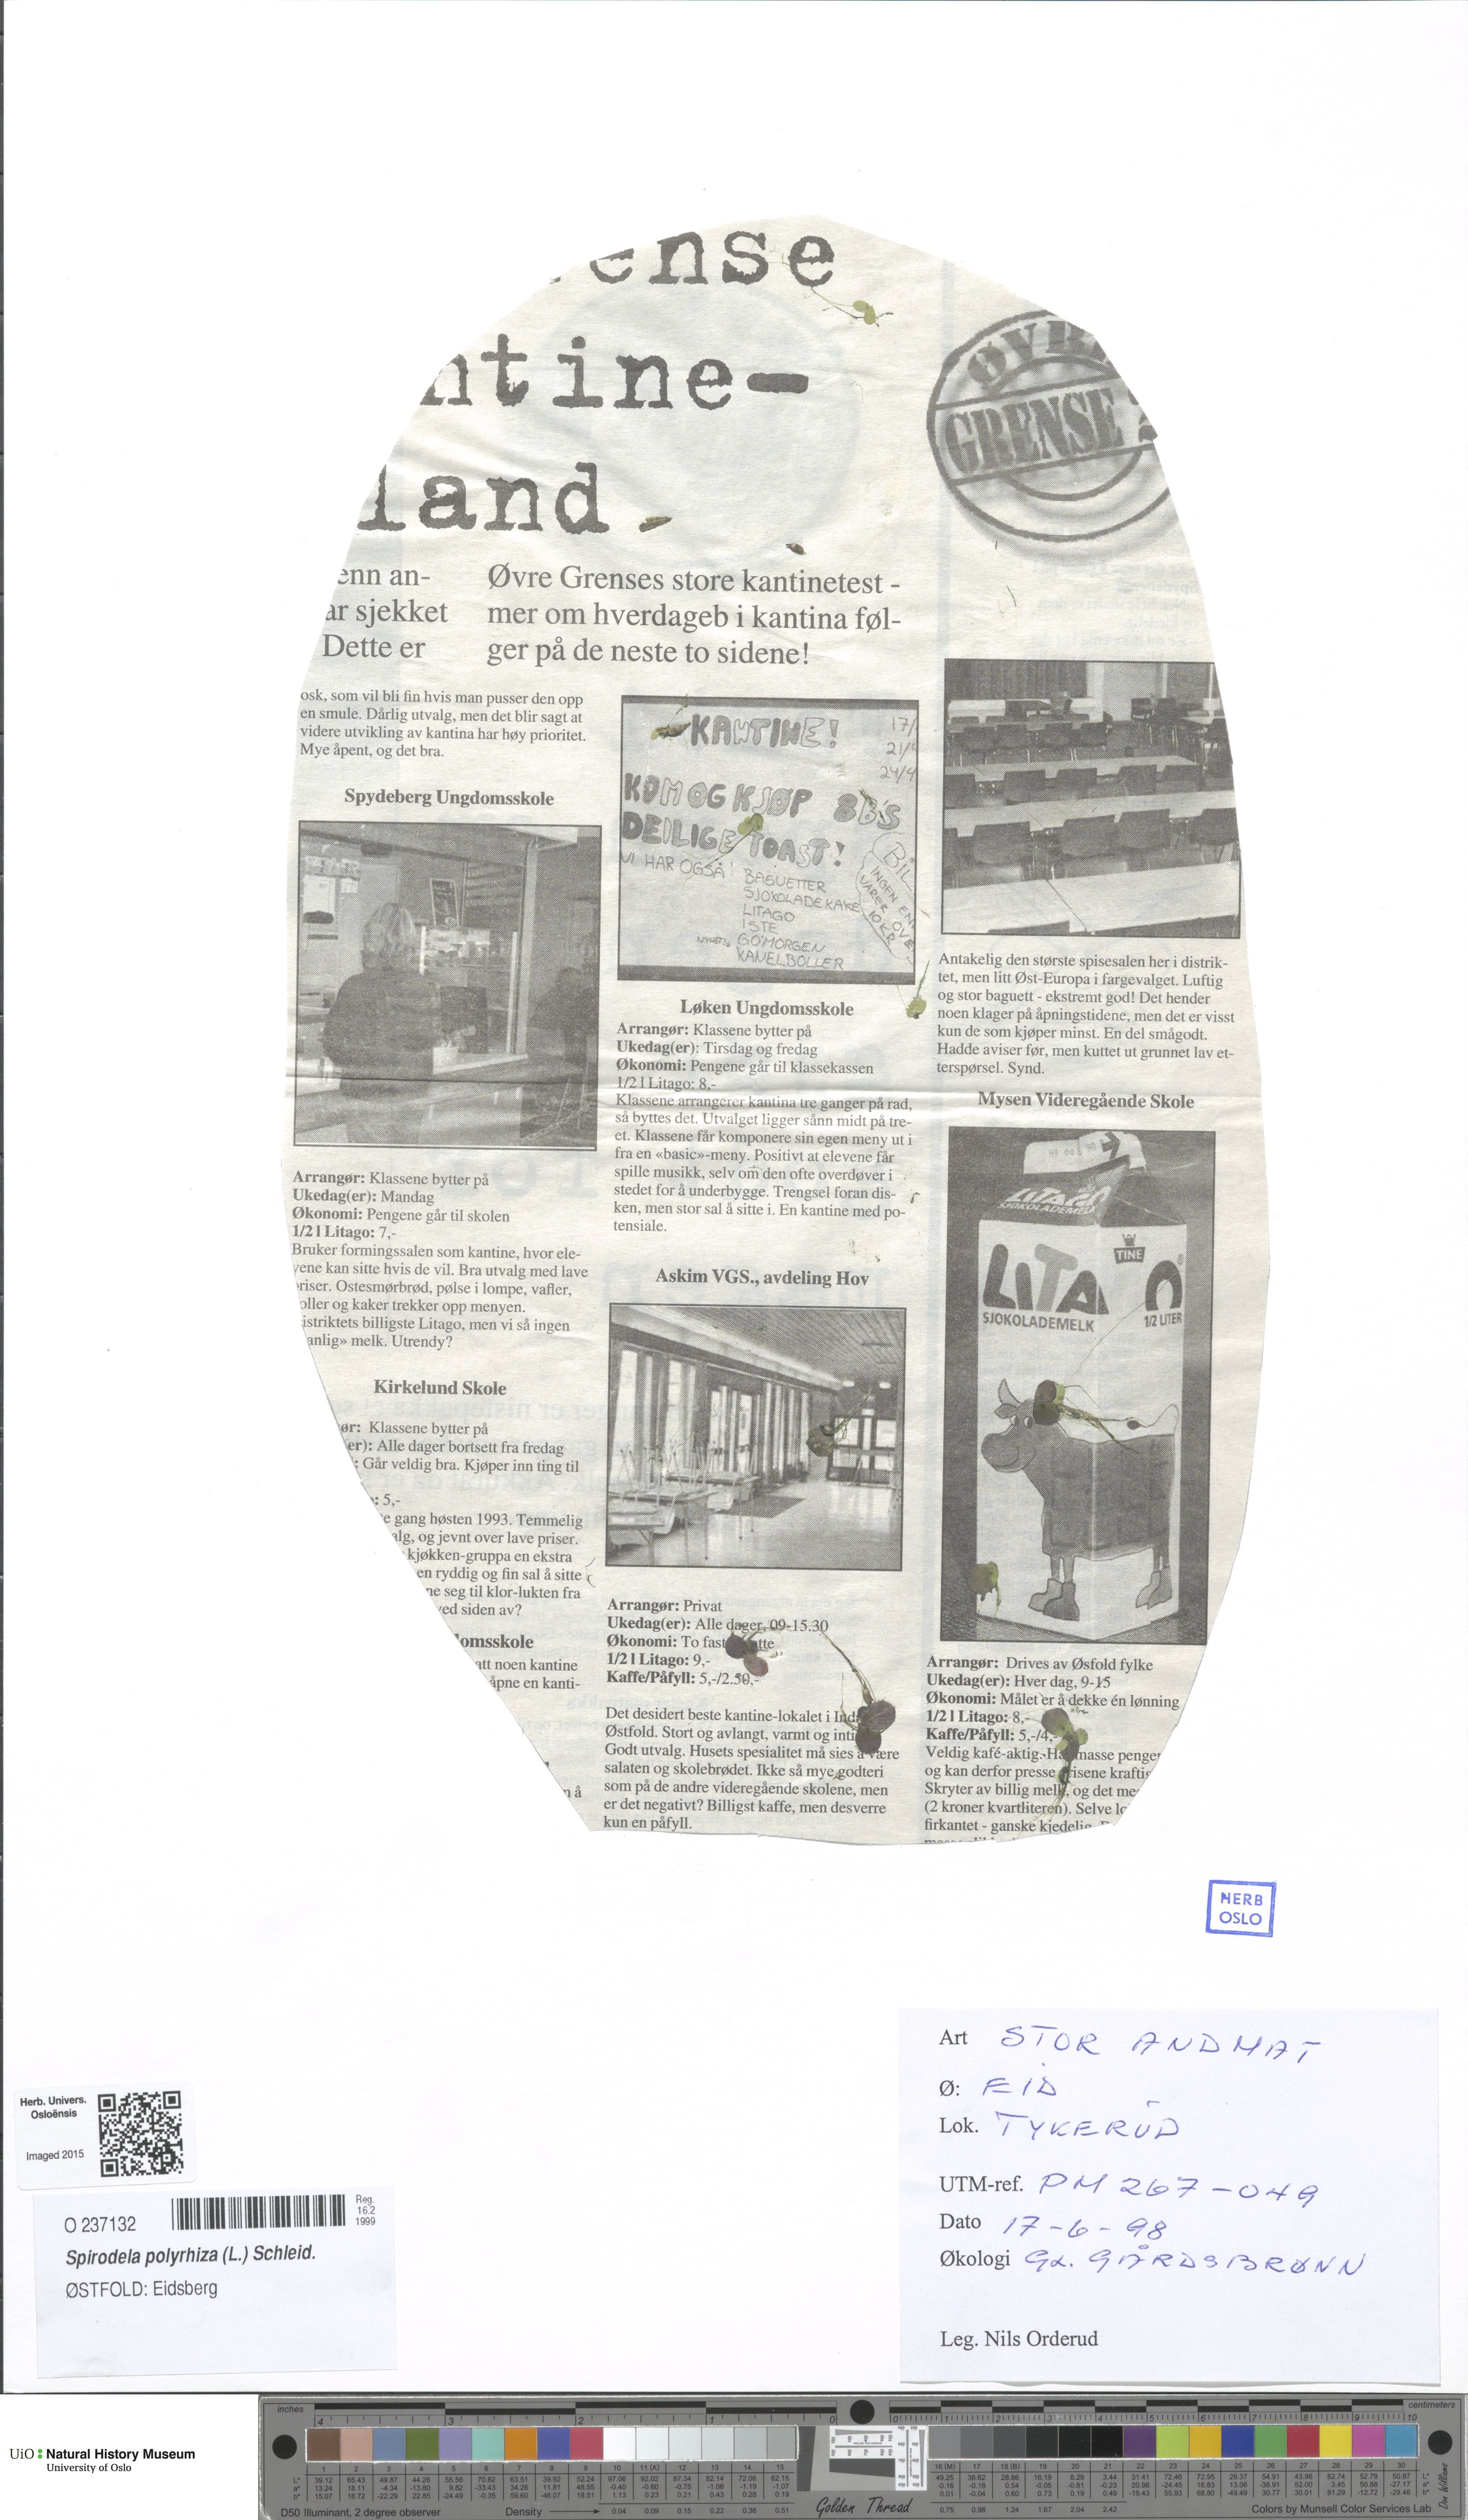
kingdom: Plantae
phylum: Tracheophyta
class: Liliopsida
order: Alismatales
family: Araceae
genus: Spirodela
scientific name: Spirodela polyrhiza
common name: Great duckweed
